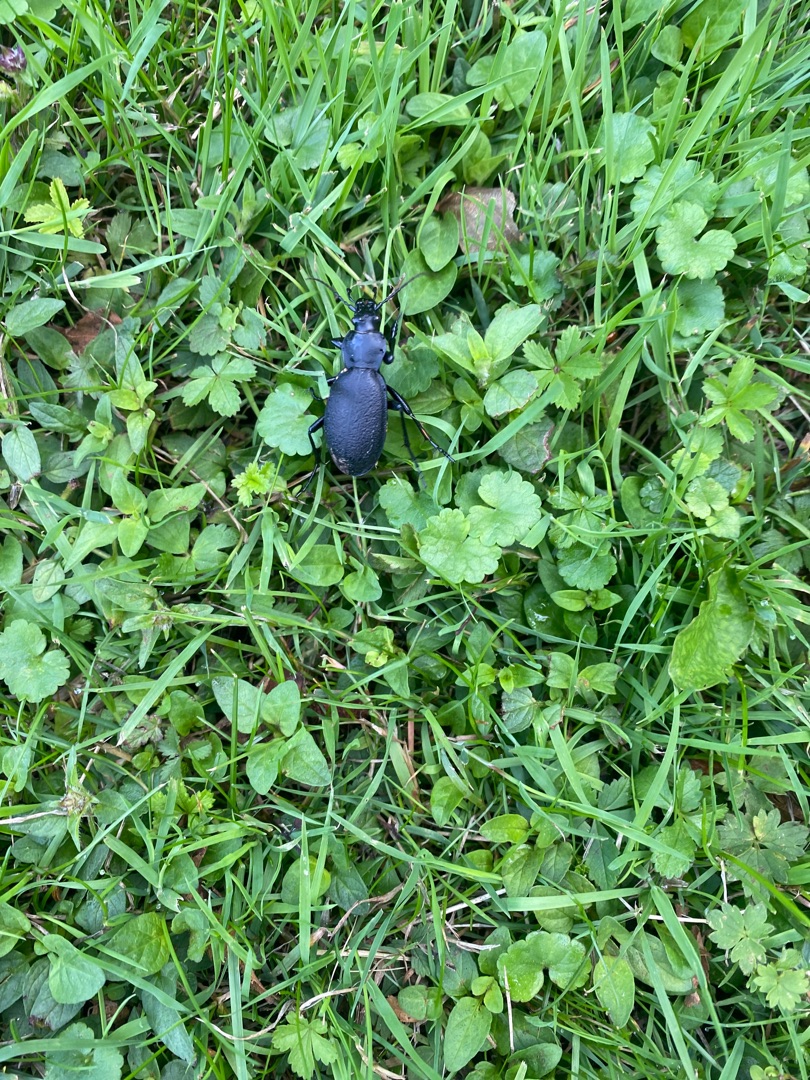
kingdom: Animalia
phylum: Arthropoda
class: Insecta
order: Coleoptera
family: Carabidae
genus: Carabus
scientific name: Carabus coriaceus
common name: Læderløber
